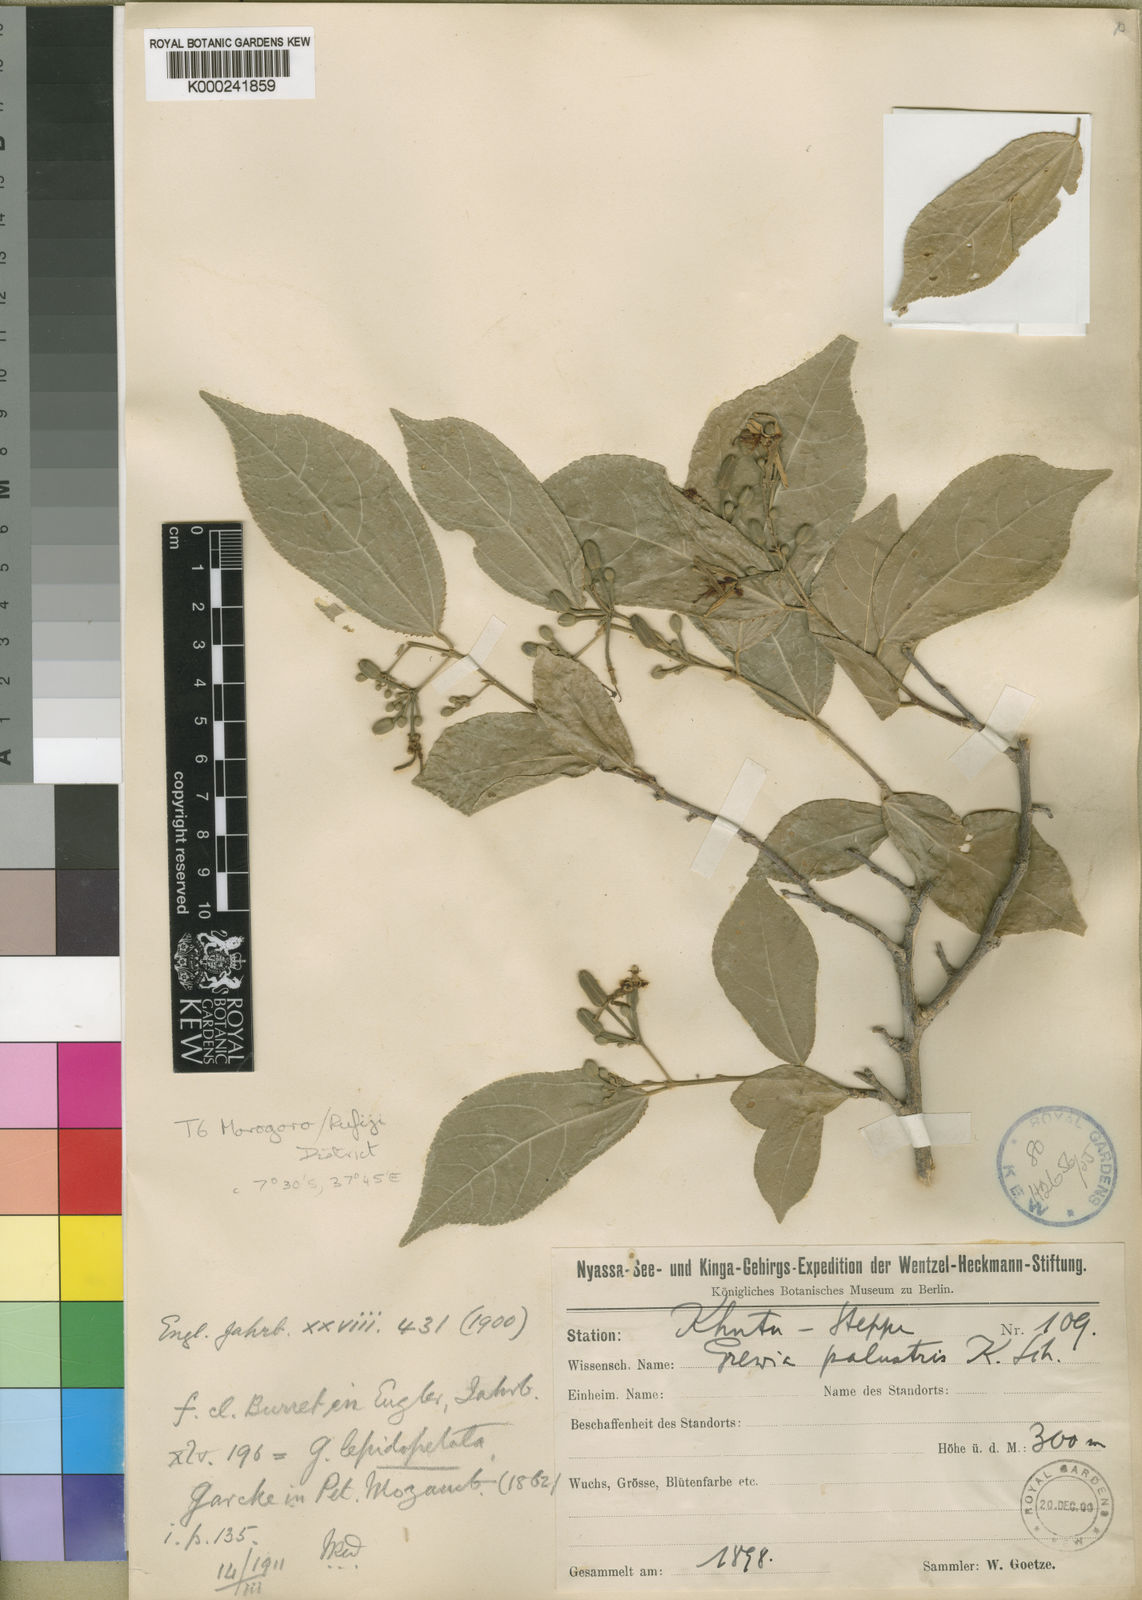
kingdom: Plantae
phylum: Tracheophyta
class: Magnoliopsida
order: Malvales
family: Malvaceae
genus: Grewia
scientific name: Grewia lepidopetala
